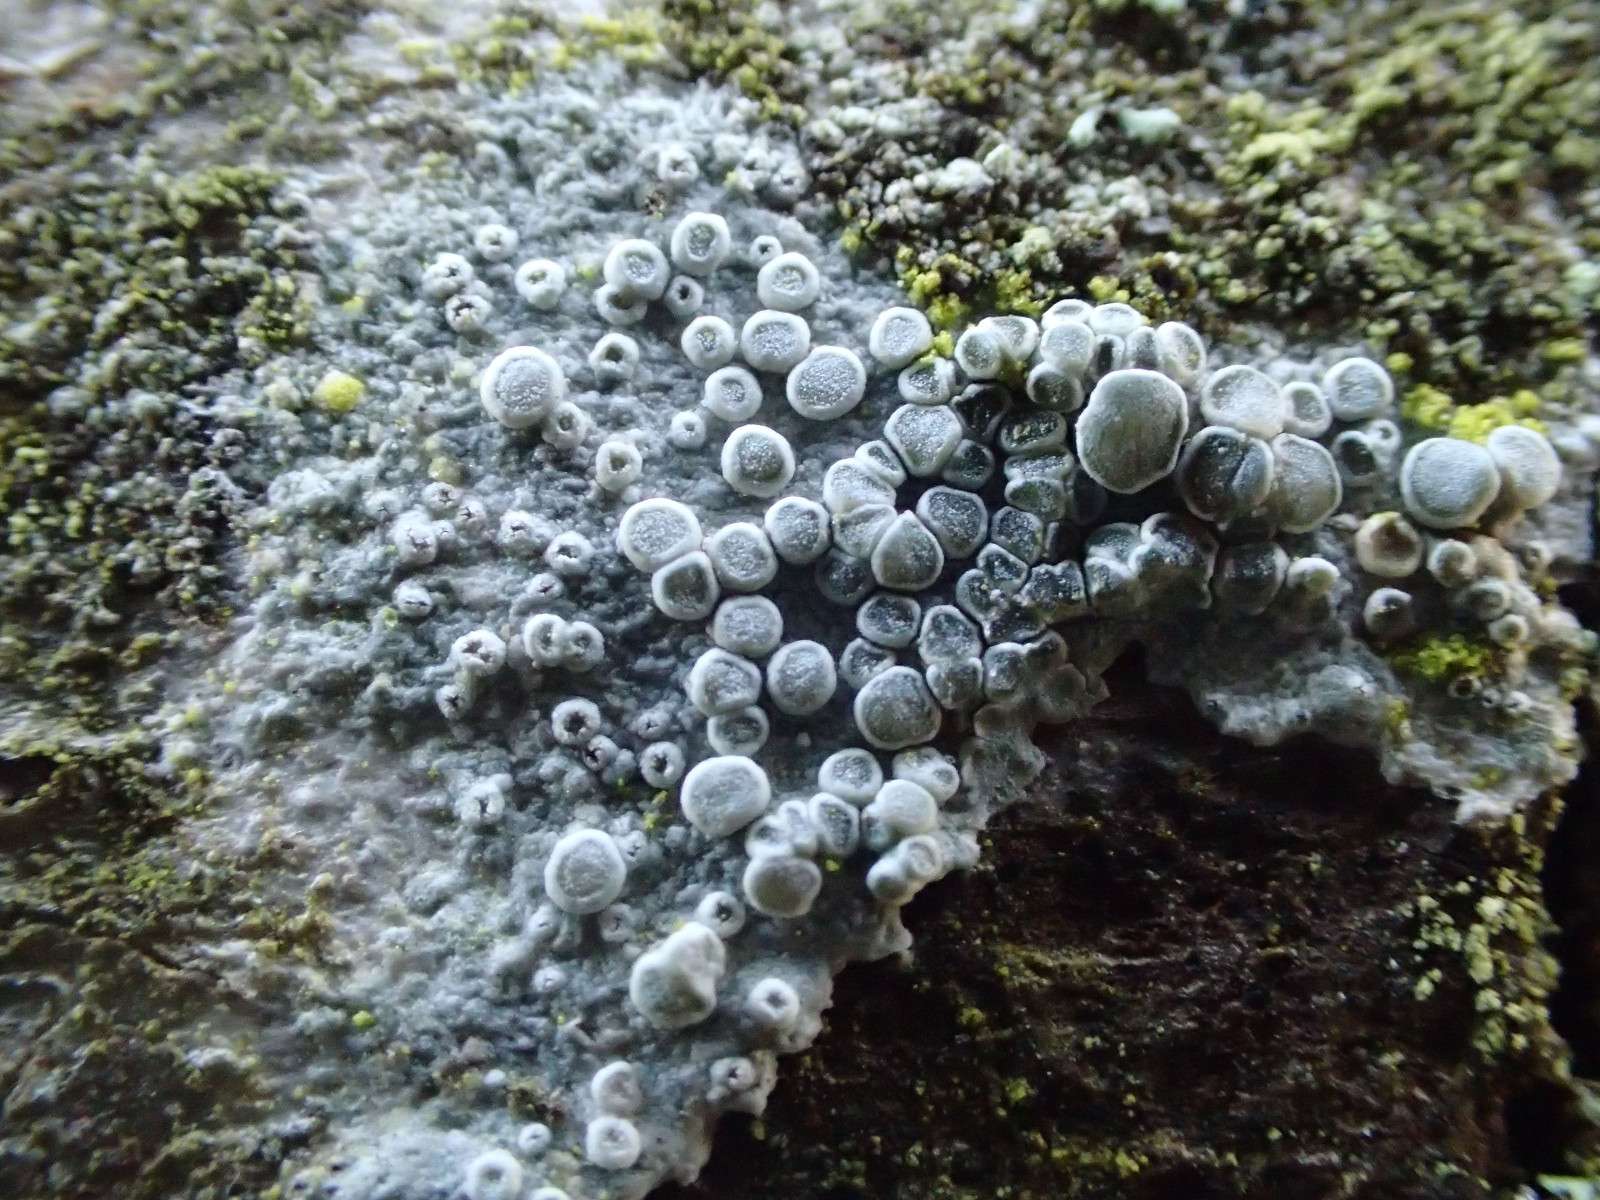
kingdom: Fungi
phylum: Ascomycota
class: Lecanoromycetes
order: Lecanorales
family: Lecanoraceae
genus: Glaucomaria
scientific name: Glaucomaria carpinea
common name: hviddugget kantskivelav
